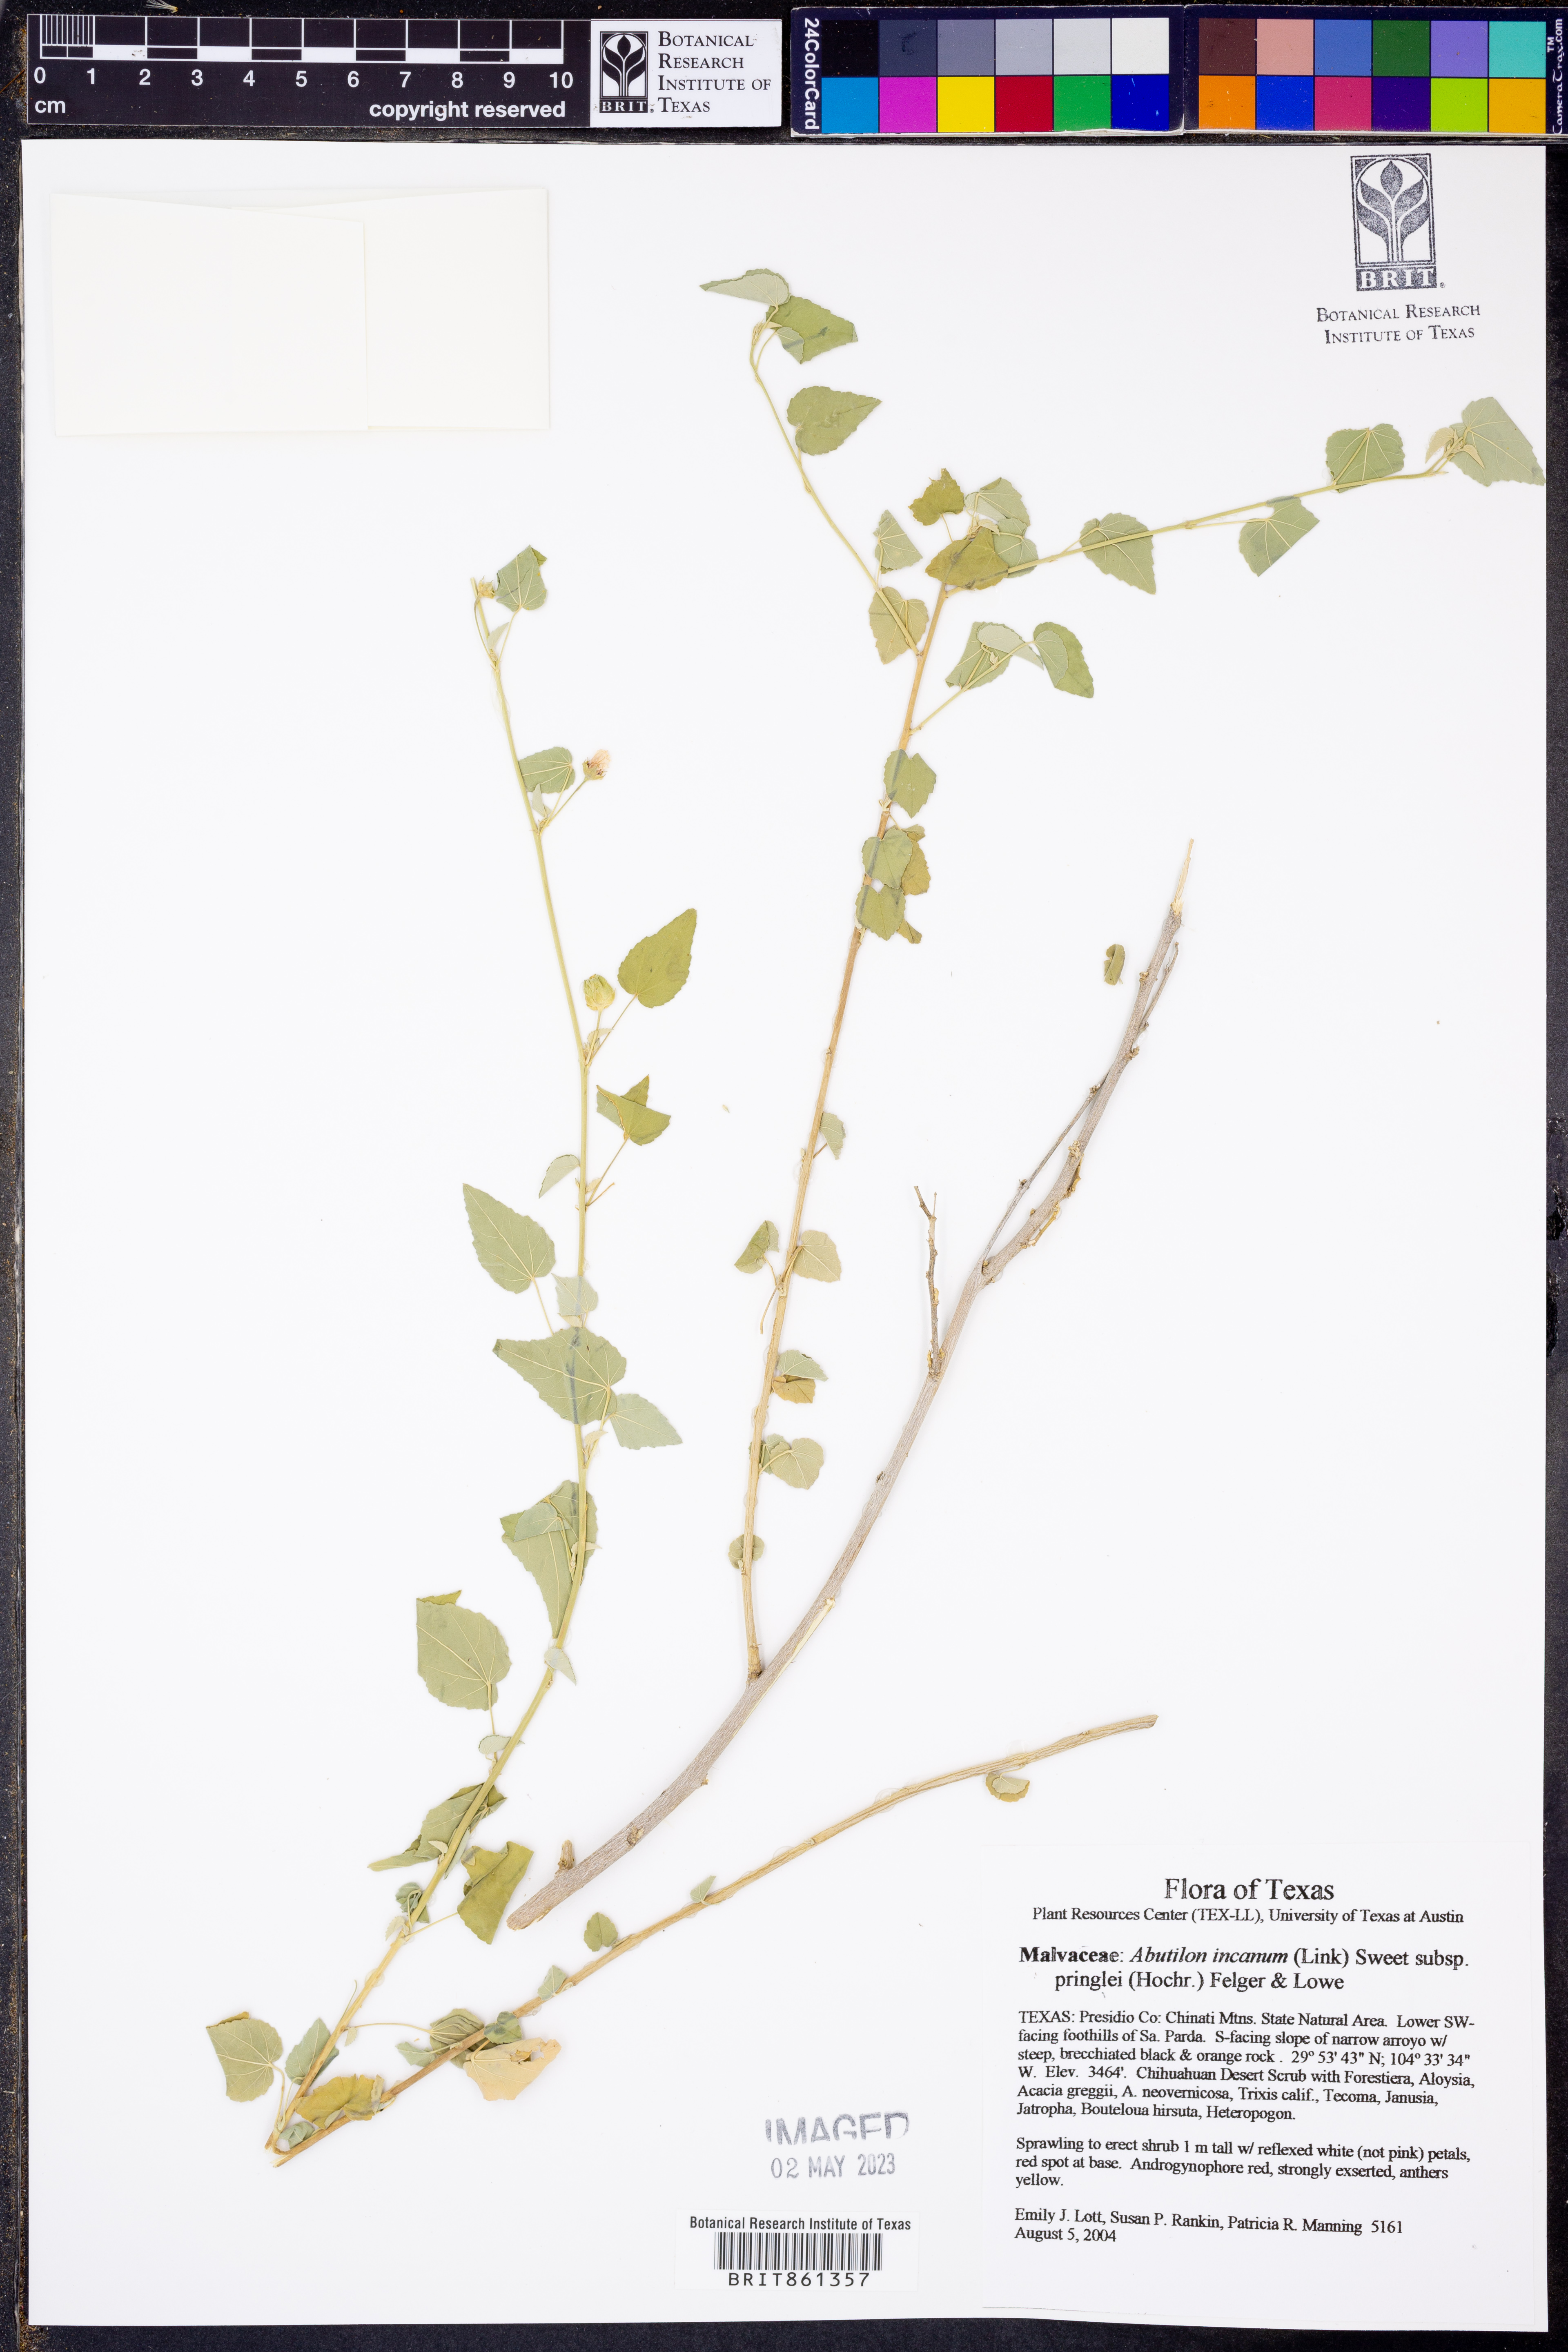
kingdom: Plantae
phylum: Tracheophyta
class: Magnoliopsida
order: Malvales
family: Malvaceae
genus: Abutilon
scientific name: Abutilon incanum
